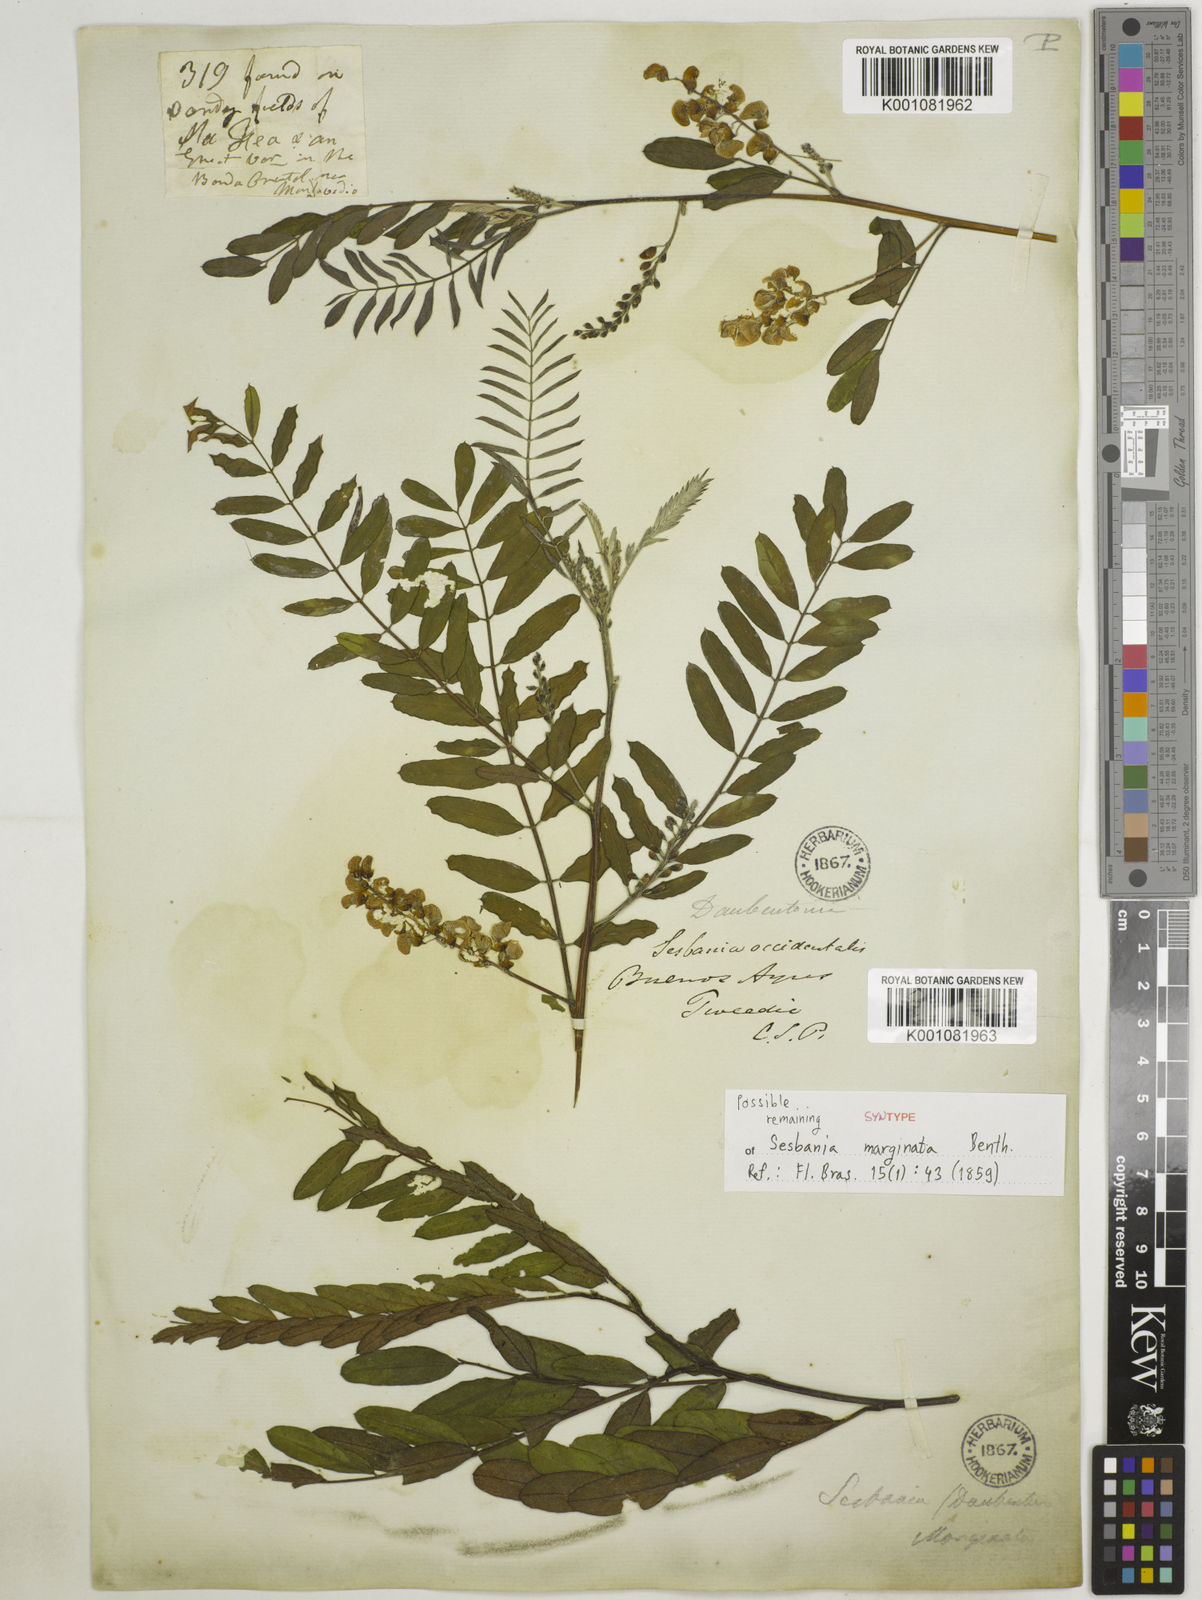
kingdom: Plantae
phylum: Tracheophyta
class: Magnoliopsida
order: Fabales
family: Fabaceae
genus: Sesbania
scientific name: Sesbania
